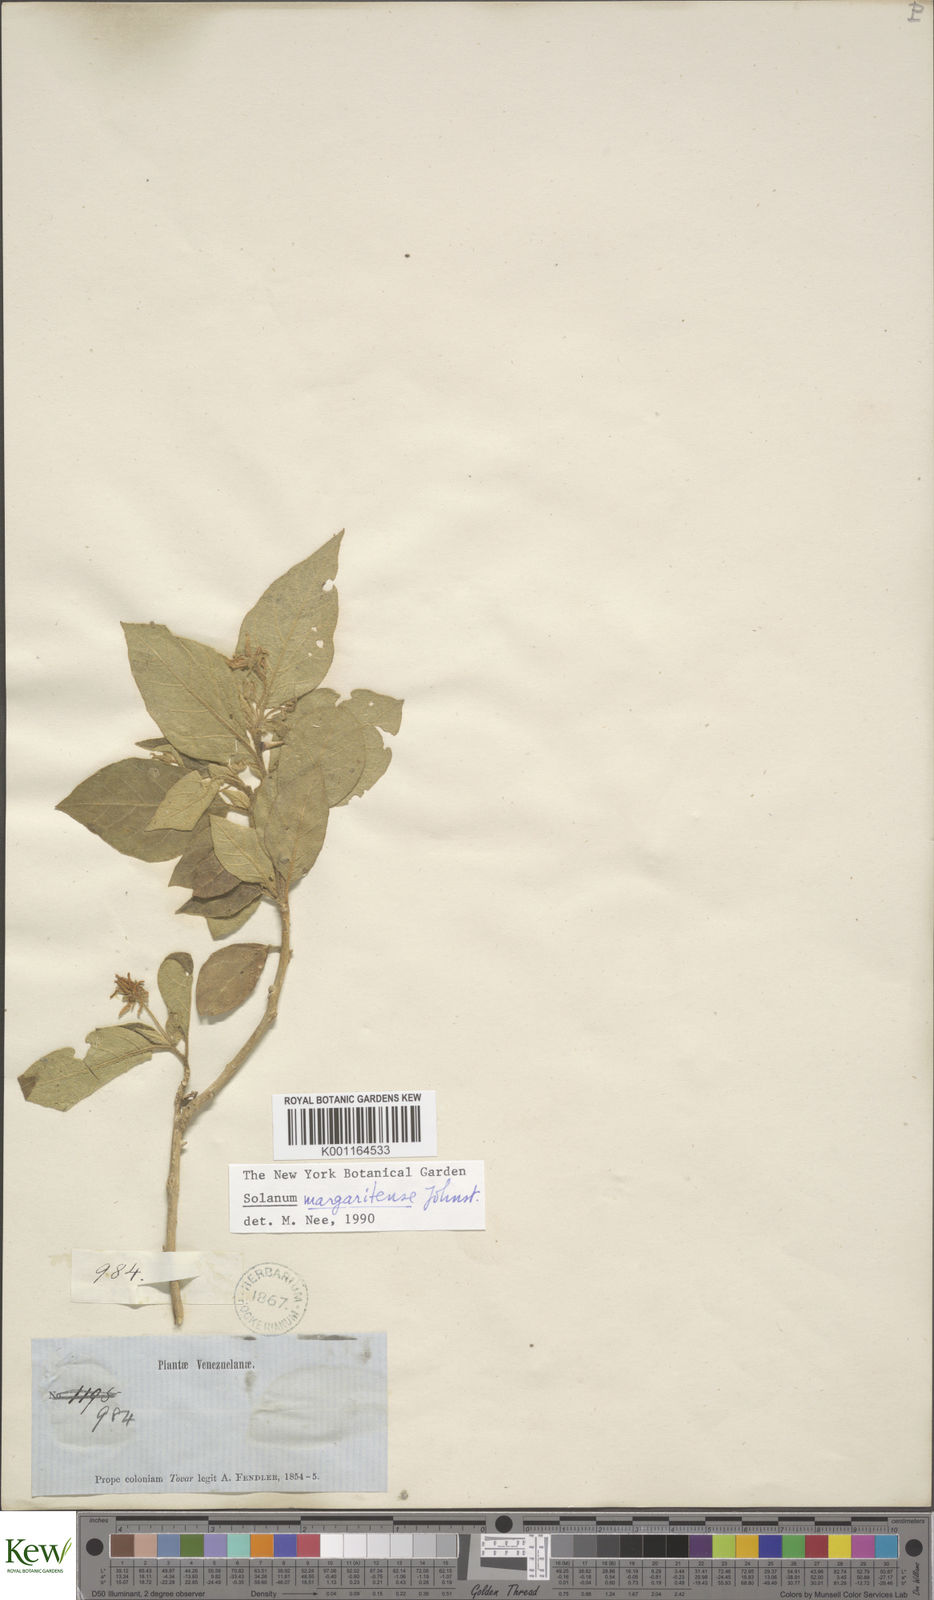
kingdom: Plantae
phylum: Tracheophyta
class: Magnoliopsida
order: Solanales
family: Solanaceae
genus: Solanum
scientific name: Solanum gardneri
